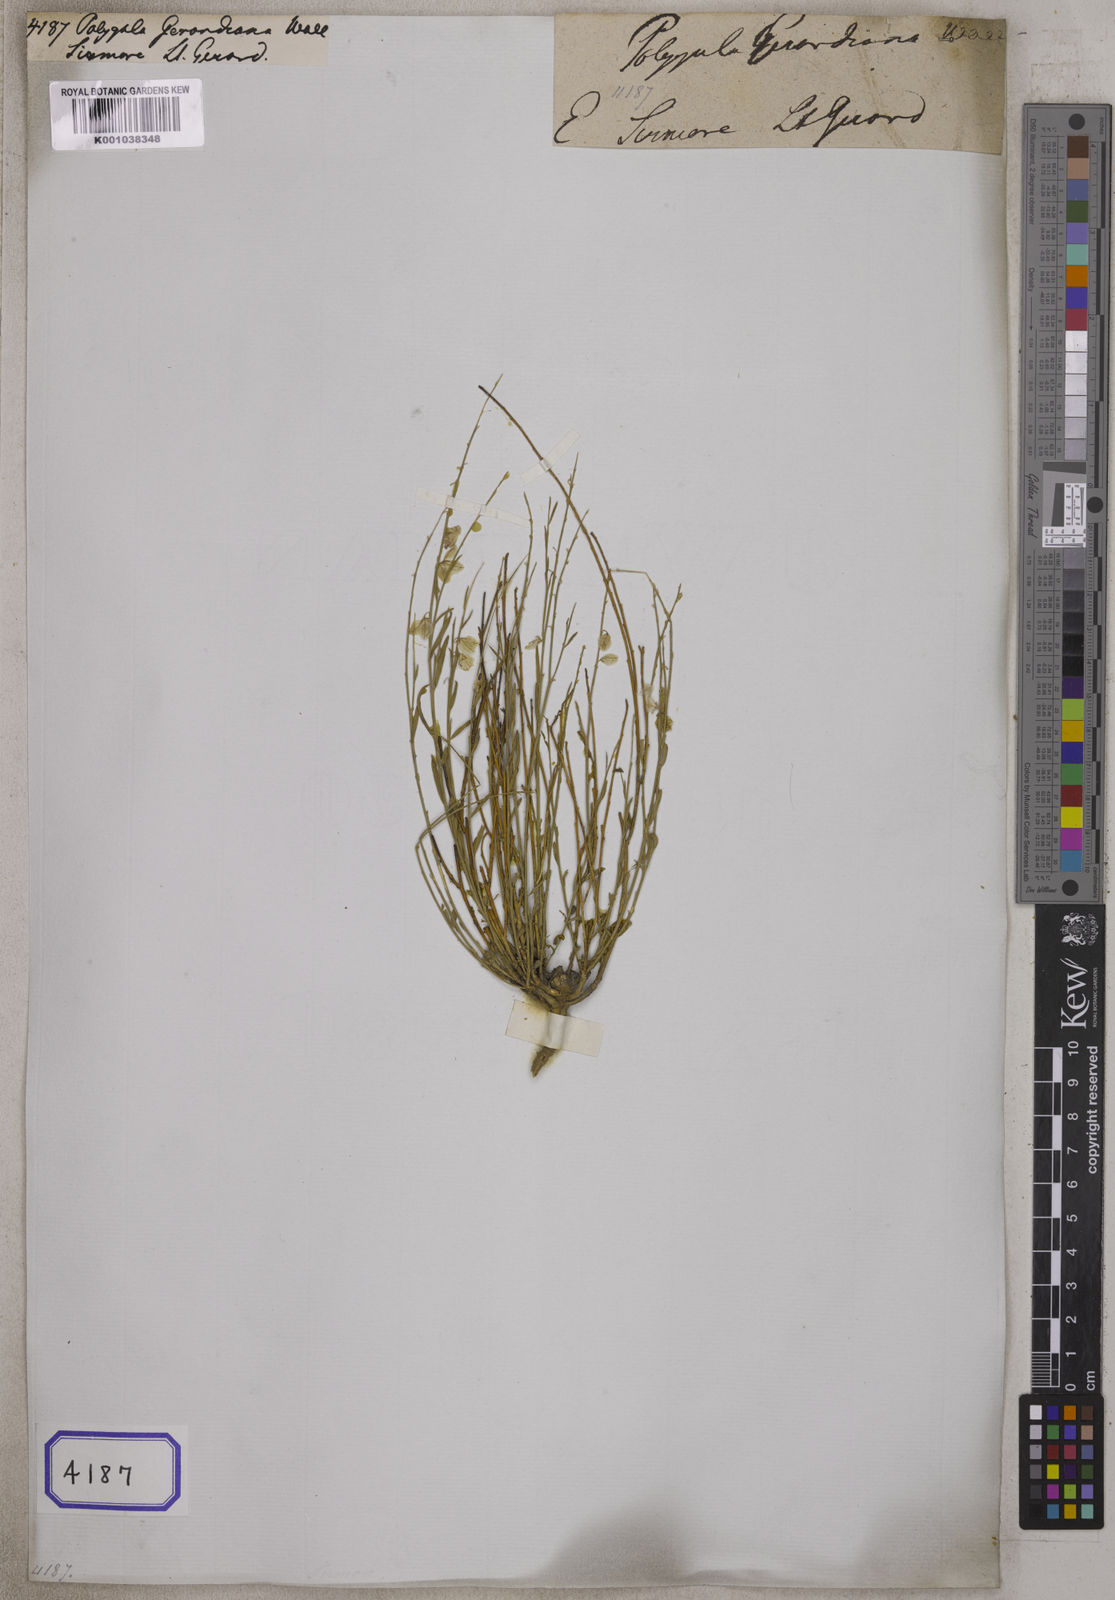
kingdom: Plantae
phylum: Tracheophyta
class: Magnoliopsida
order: Fabales
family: Polygalaceae
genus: Polygala
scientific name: Polygala
